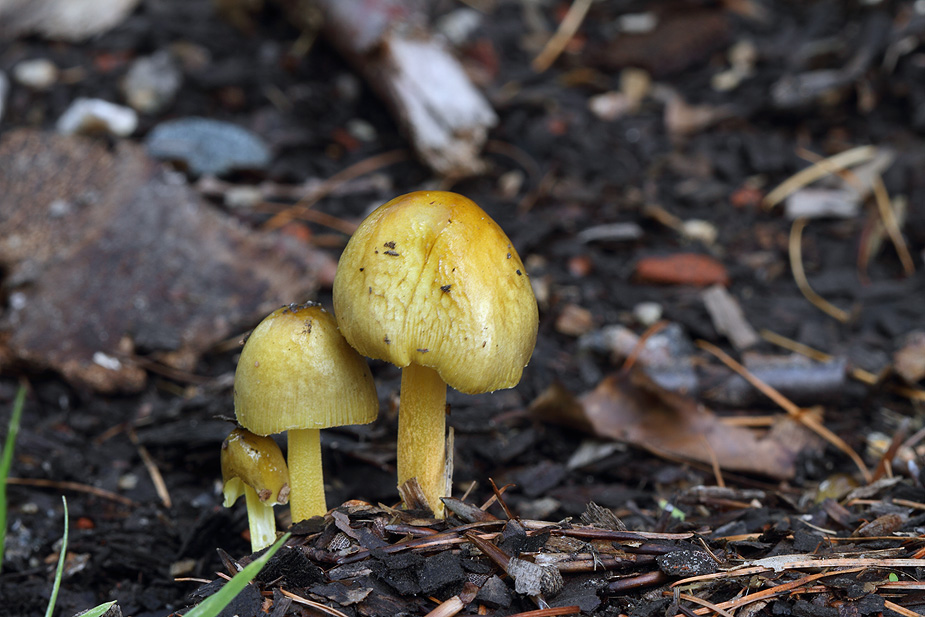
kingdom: Fungi
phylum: Basidiomycota
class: Agaricomycetes
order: Agaricales
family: Bolbitiaceae
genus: Bolbitius
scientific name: Bolbitius titubans
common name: almindelig gulhat
